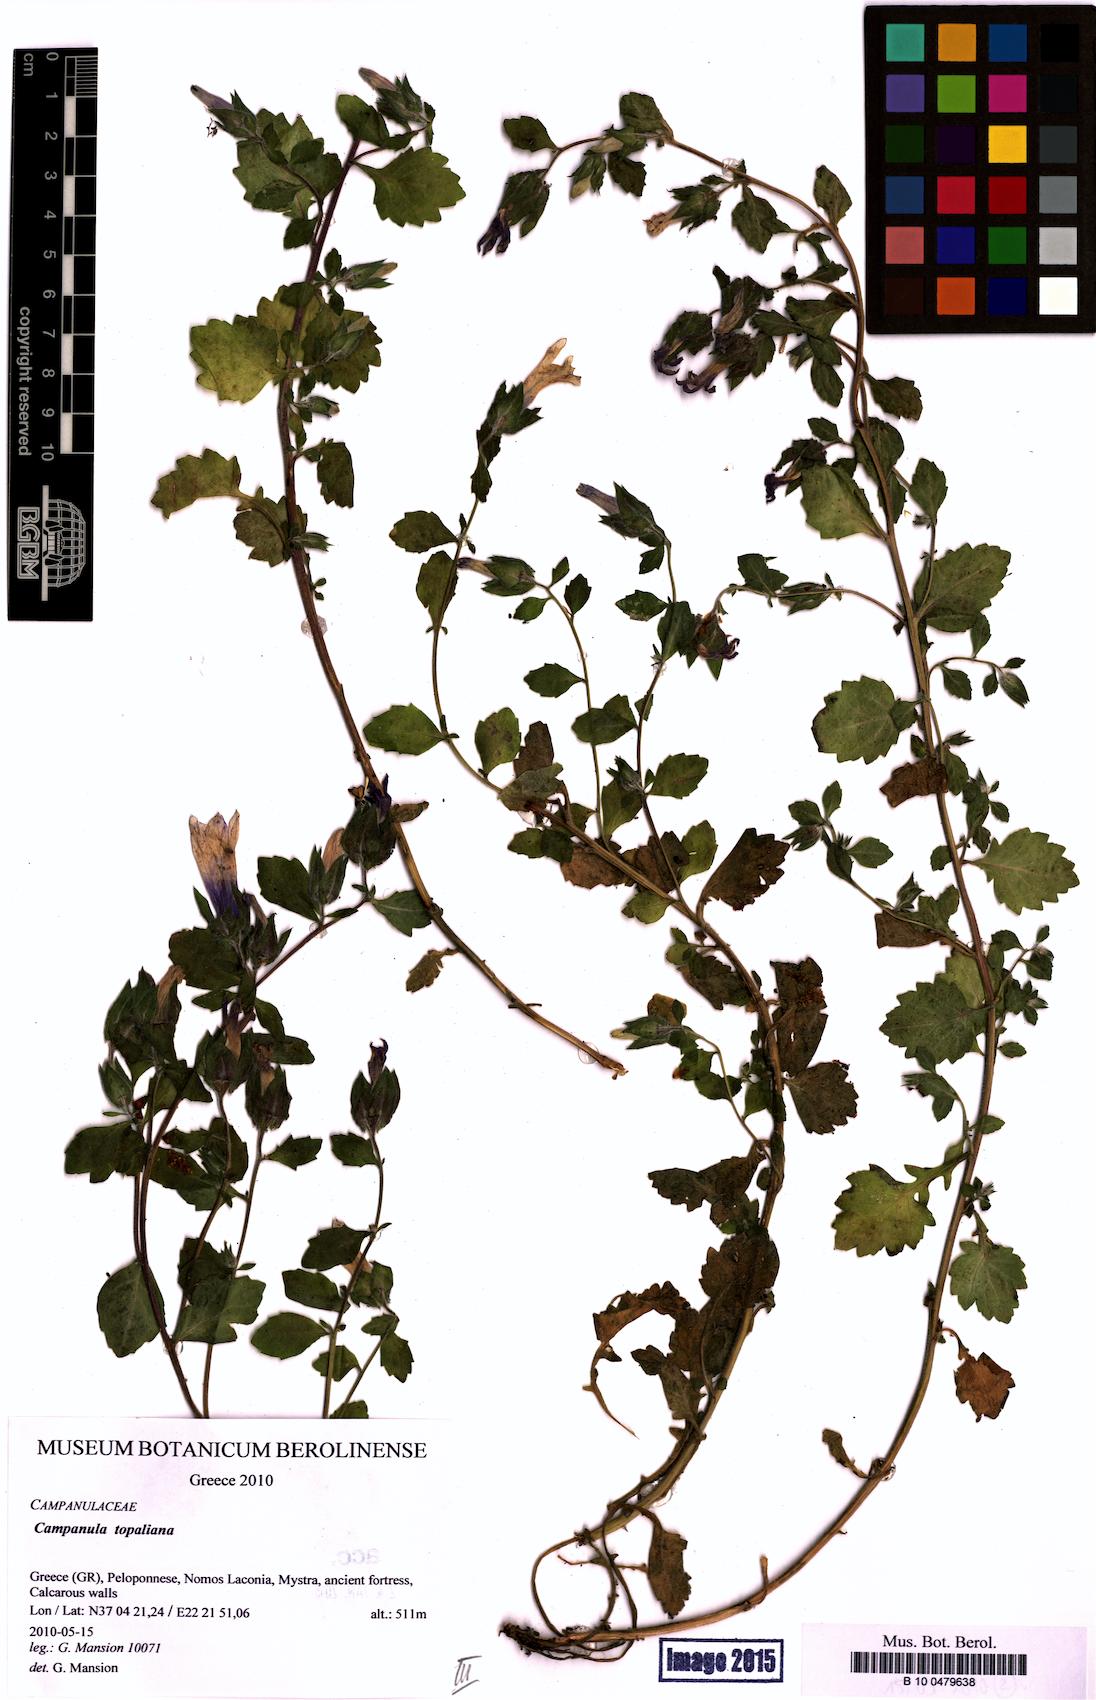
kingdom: Plantae
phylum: Tracheophyta
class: Magnoliopsida
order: Asterales
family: Campanulaceae
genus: Campanula
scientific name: Campanula topaliana
